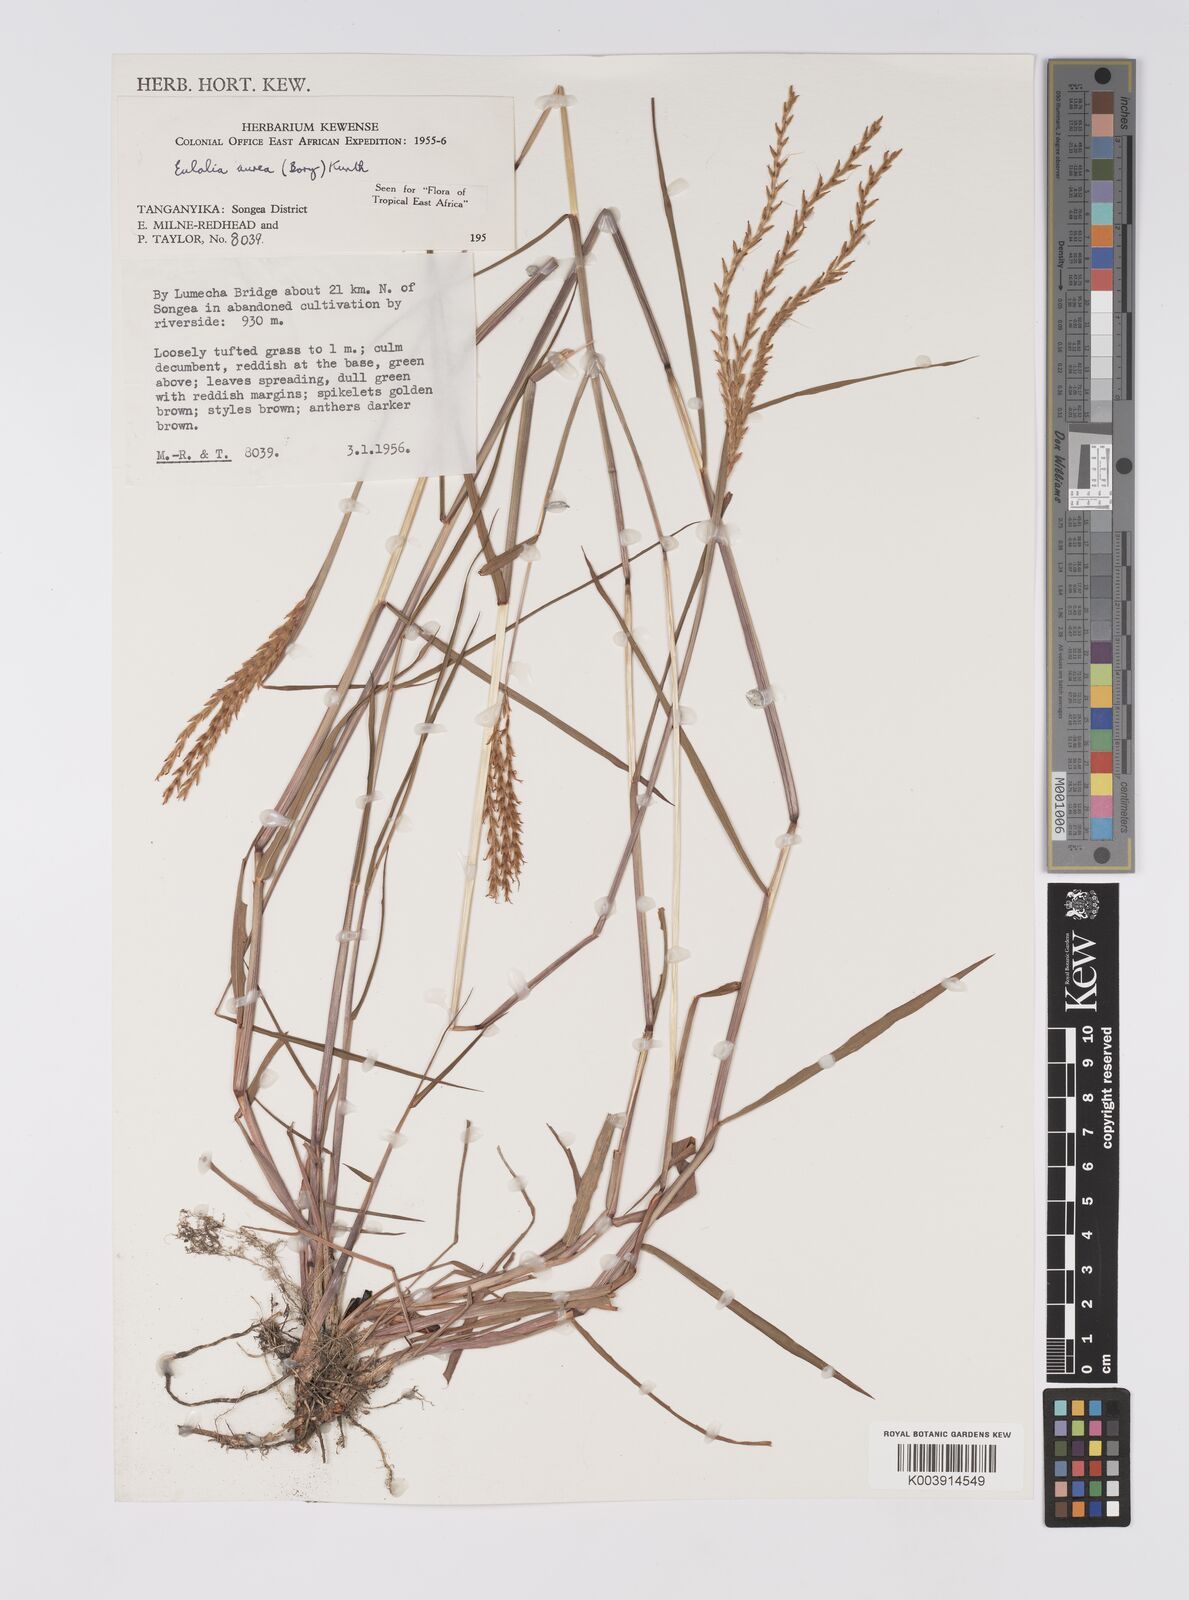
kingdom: Plantae
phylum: Tracheophyta
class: Liliopsida
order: Poales
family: Poaceae
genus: Eulalia
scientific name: Eulalia aurea
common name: Silky browntop
